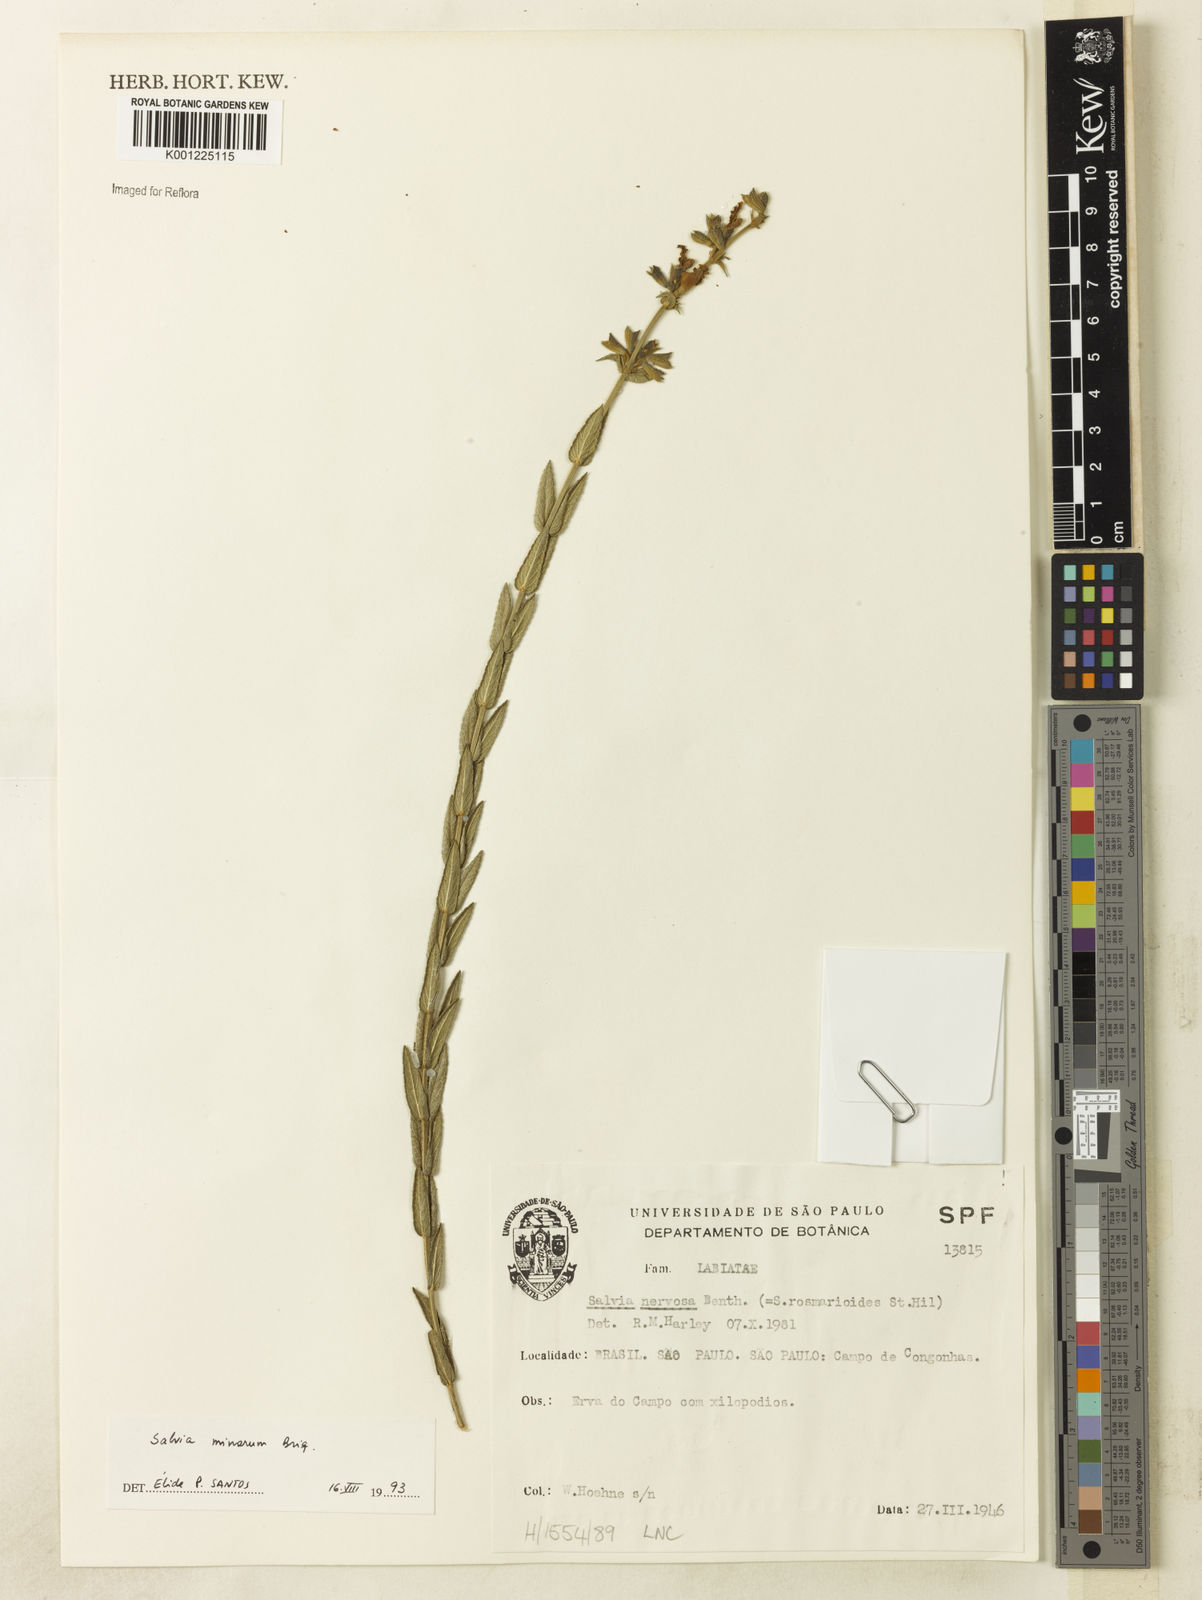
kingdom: Plantae
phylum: Tracheophyta
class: Magnoliopsida
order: Lamiales
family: Lamiaceae
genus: Salvia
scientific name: Salvia minarum
